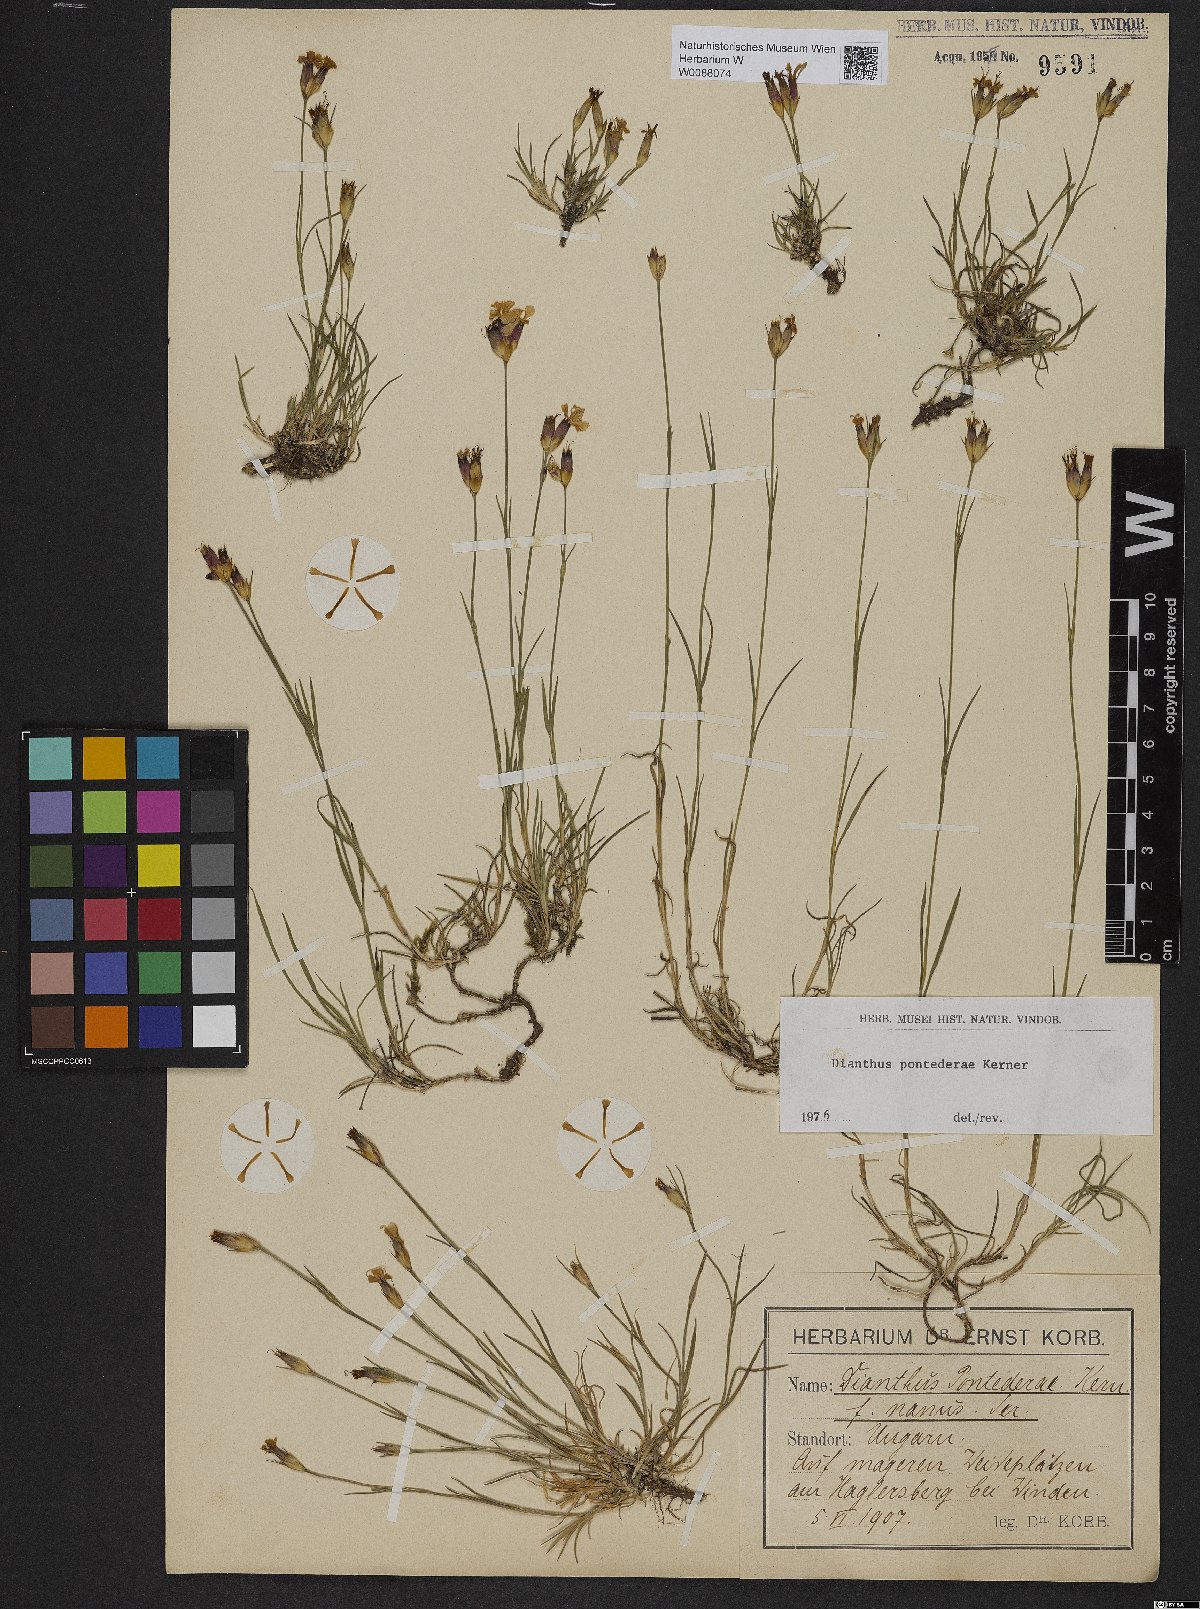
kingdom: Plantae
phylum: Tracheophyta
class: Magnoliopsida
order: Caryophyllales
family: Caryophyllaceae
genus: Dianthus
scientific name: Dianthus pontederae
